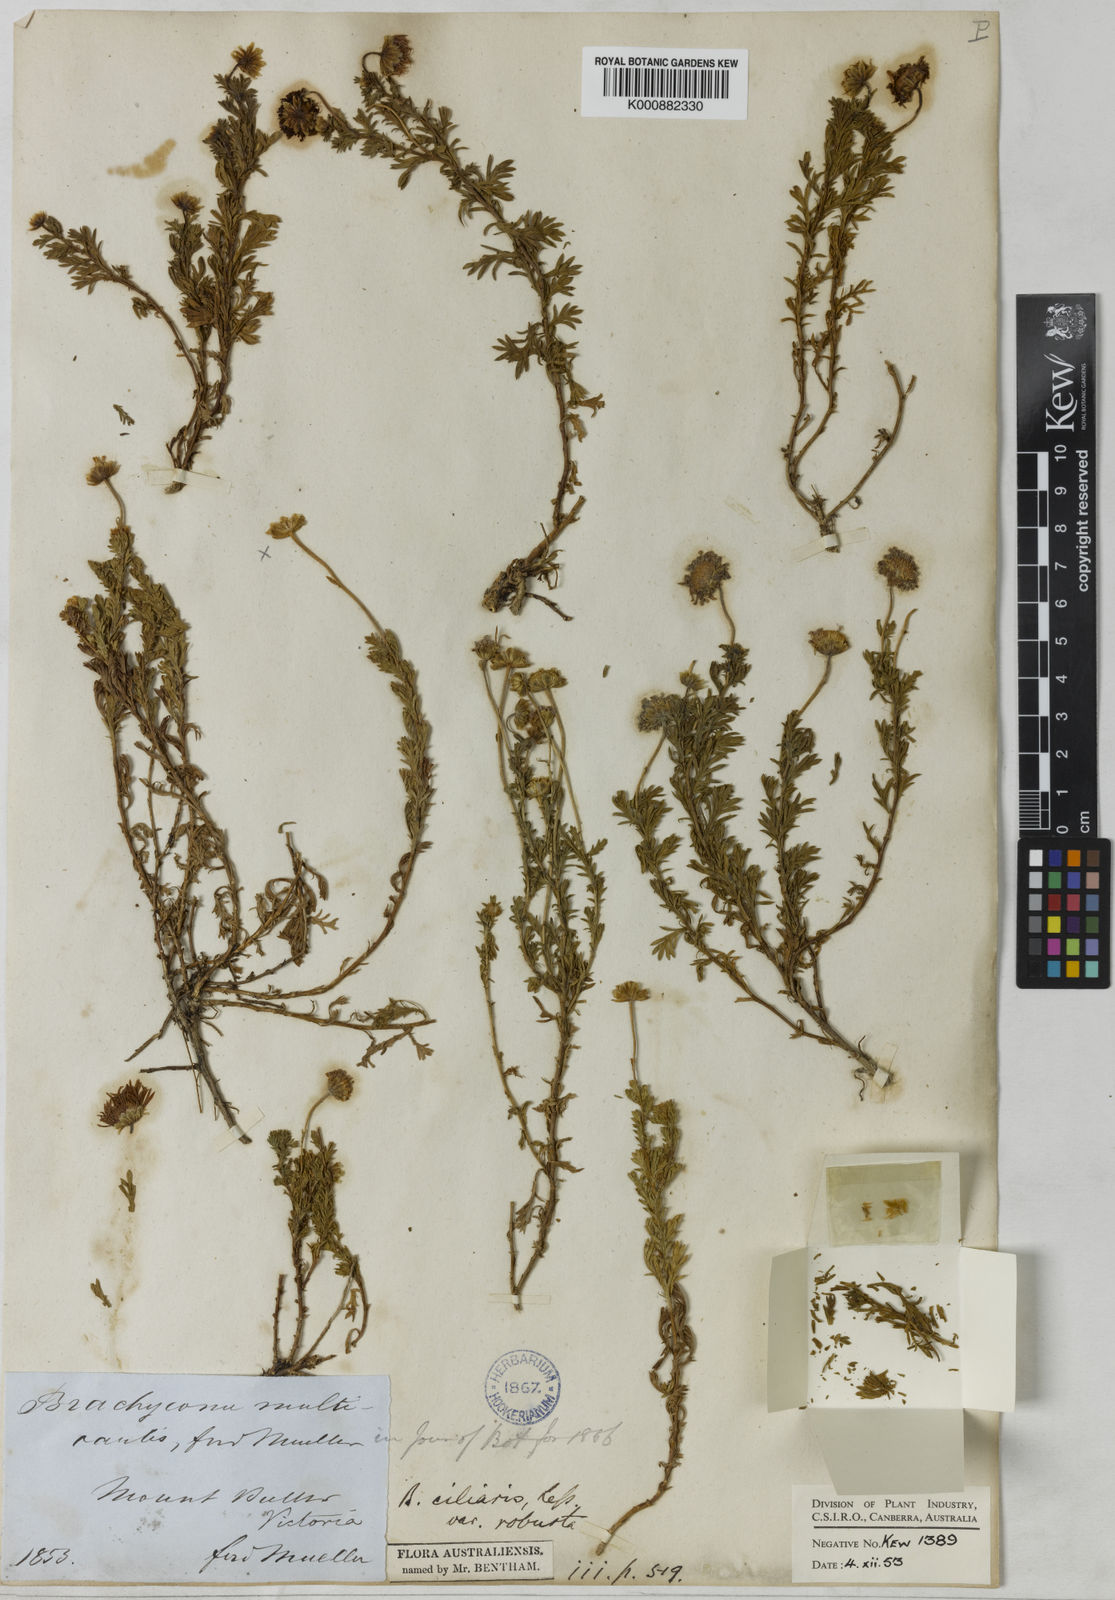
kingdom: Plantae
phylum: Tracheophyta
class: Magnoliopsida
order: Asterales
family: Asteraceae
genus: Brachyscome
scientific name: Brachyscome rigidula
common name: Leafy daisy
